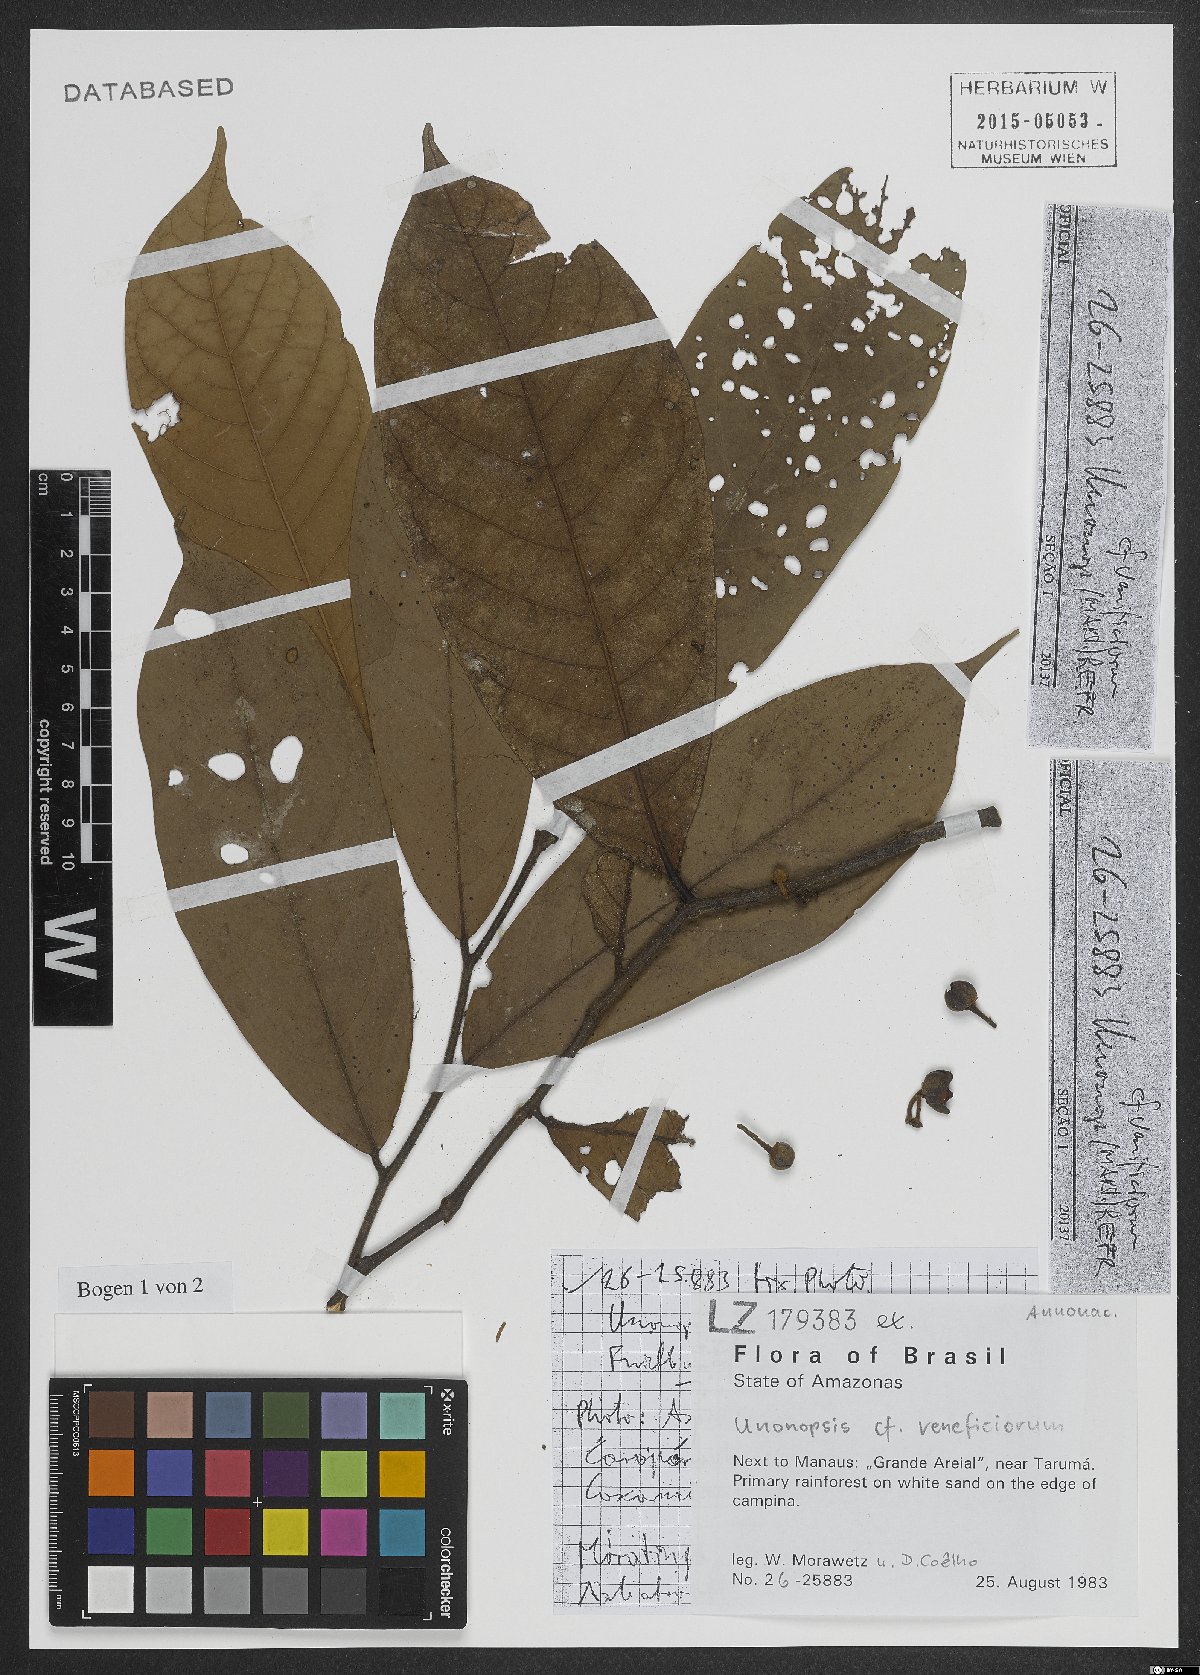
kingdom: Plantae
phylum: Tracheophyta
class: Magnoliopsida
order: Magnoliales
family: Annonaceae
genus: Unonopsis
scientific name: Unonopsis veneficiorum
